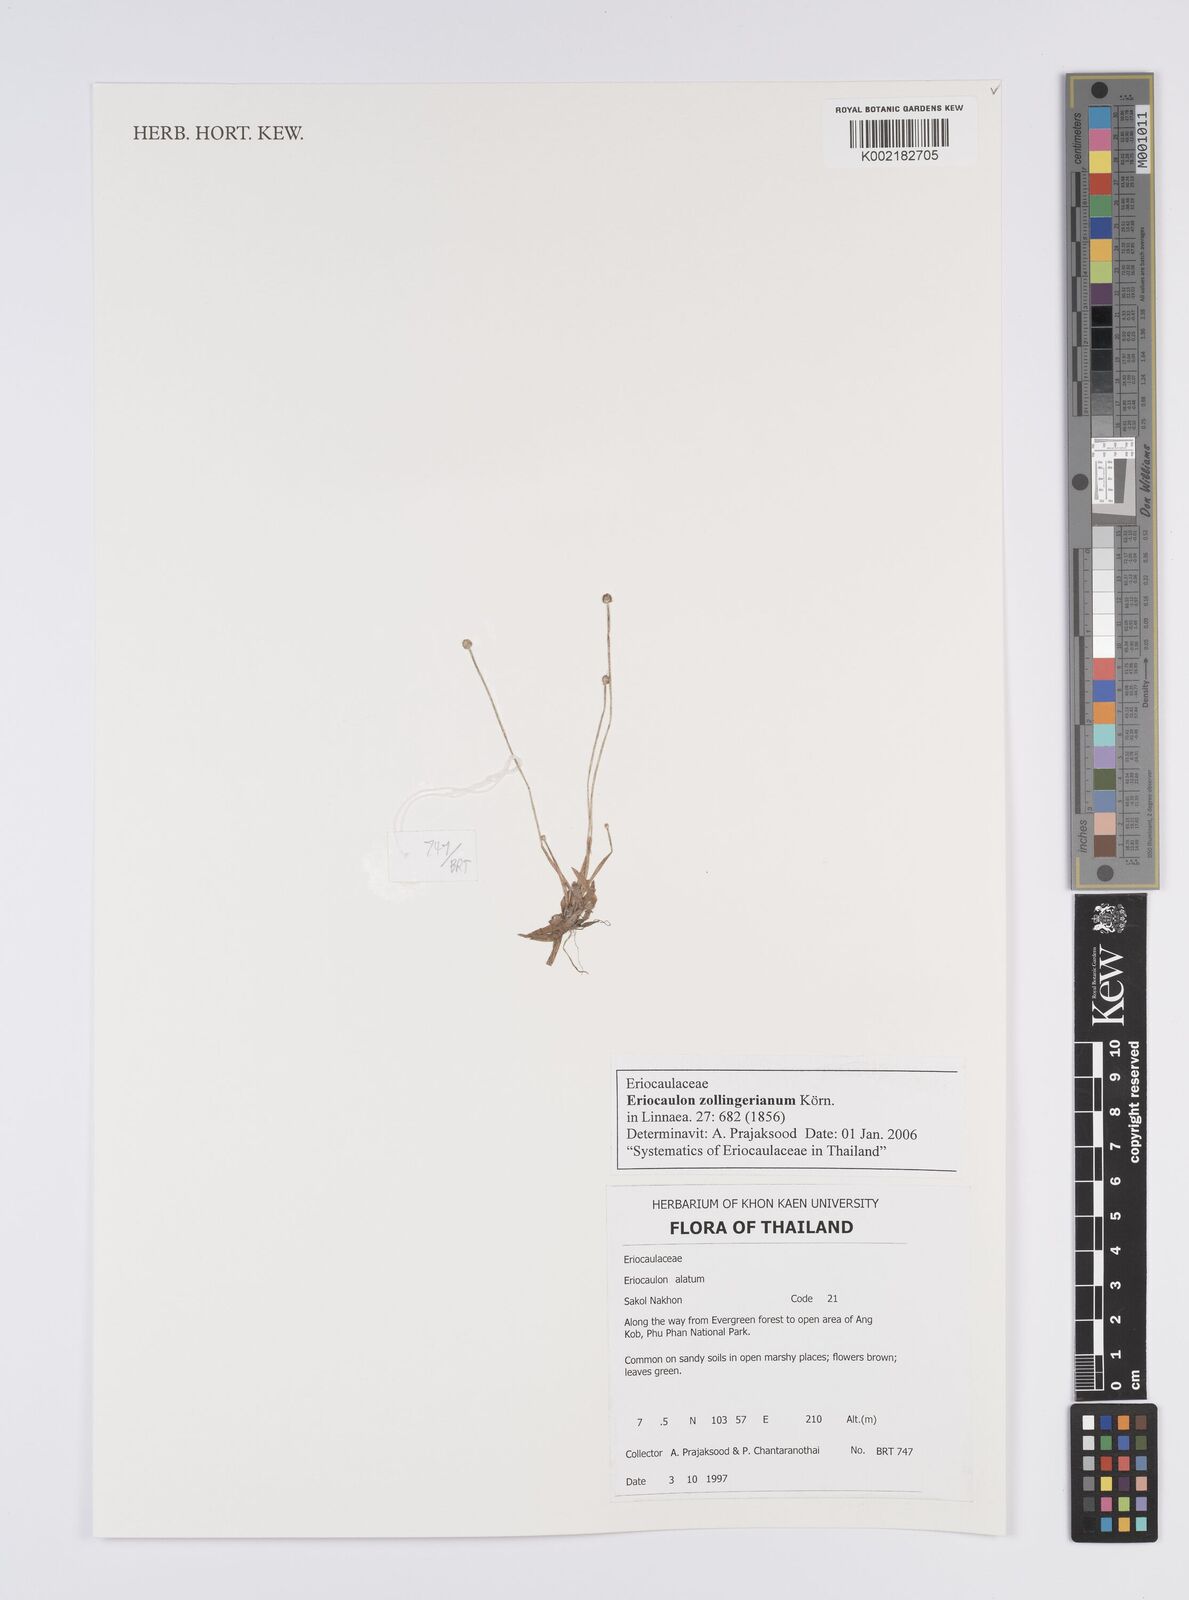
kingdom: Plantae
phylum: Tracheophyta
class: Liliopsida
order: Poales
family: Eriocaulaceae
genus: Eriocaulon
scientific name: Eriocaulon zollingerianum
